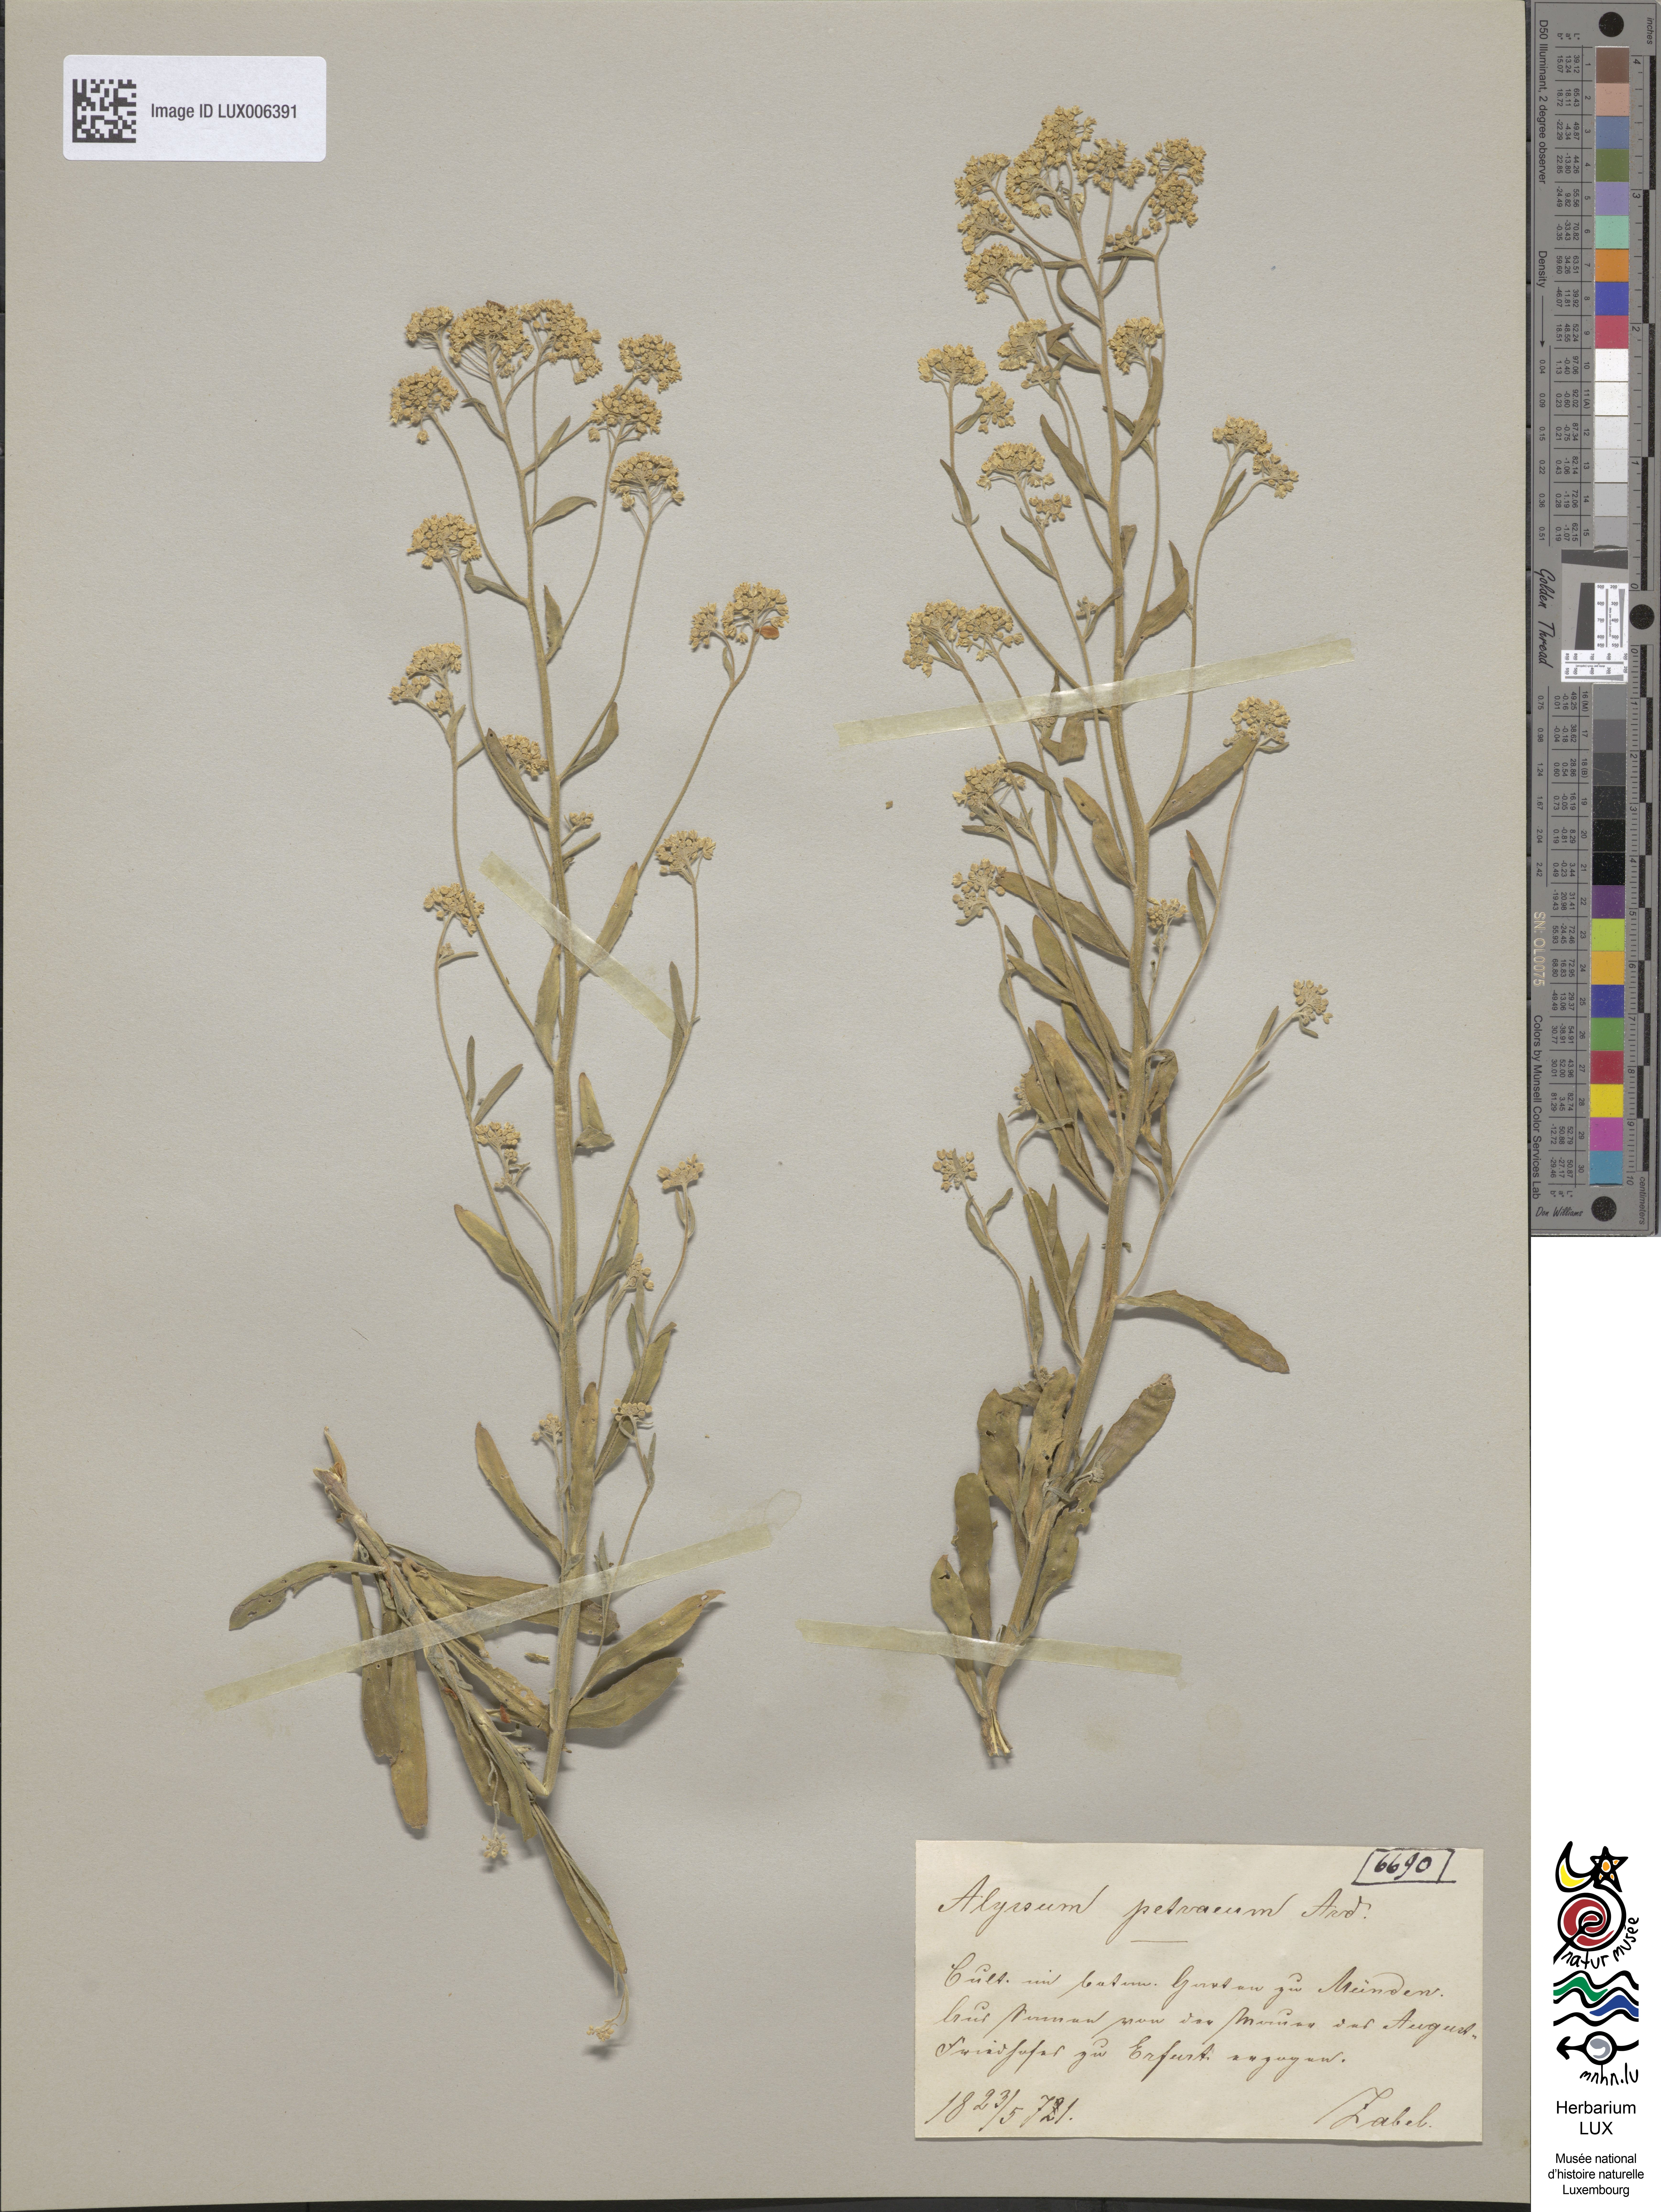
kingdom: Plantae
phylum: Tracheophyta
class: Magnoliopsida
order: Brassicales
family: Brassicaceae
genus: Aurinia
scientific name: Aurinia petraea
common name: Goldentuft
